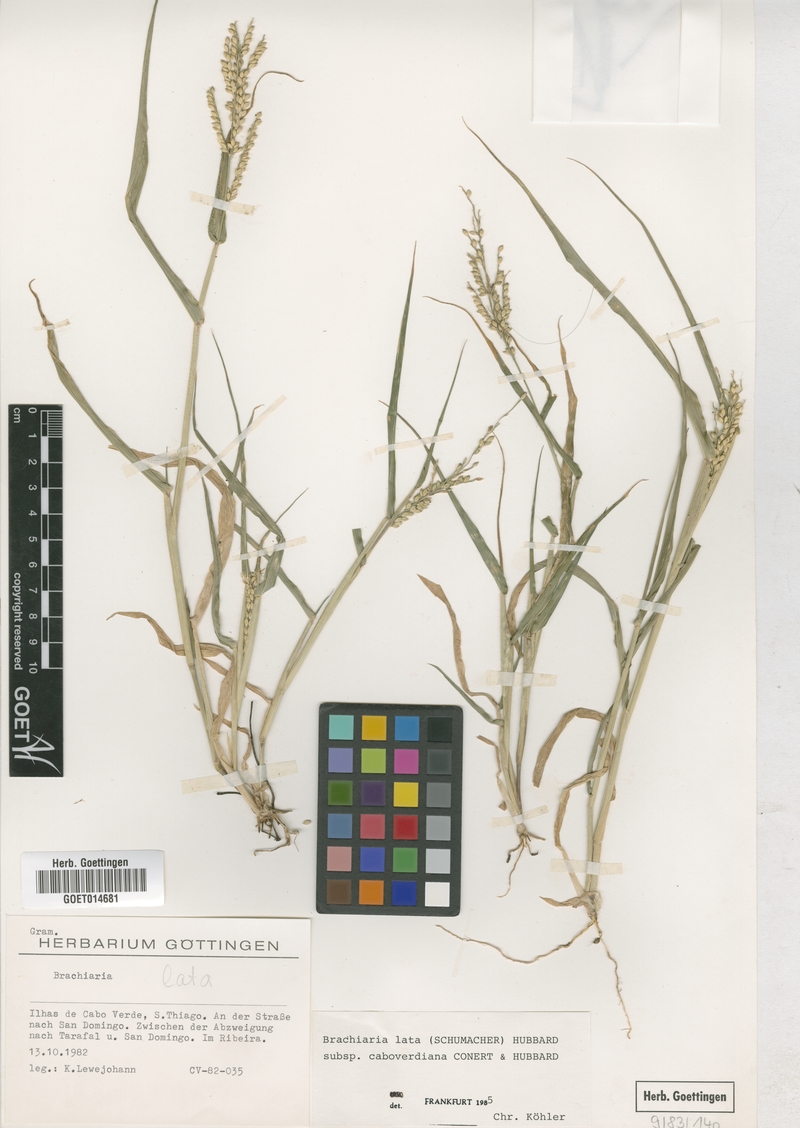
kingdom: Plantae
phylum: Tracheophyta
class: Liliopsida
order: Poales
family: Poaceae
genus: Urochloa
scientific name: Urochloa caboverdiana
